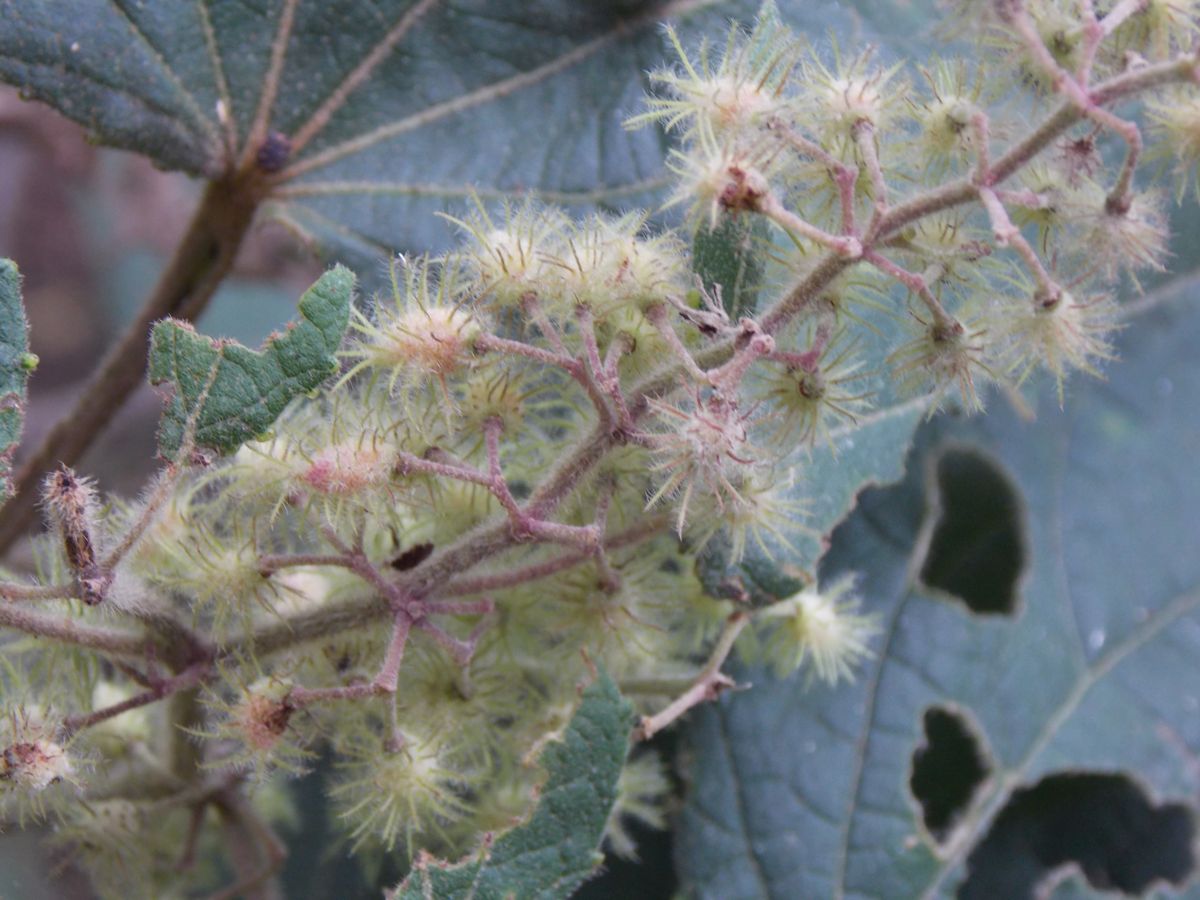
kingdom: Plantae
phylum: Tracheophyta
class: Magnoliopsida
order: Malvales
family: Malvaceae
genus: Triumfetta
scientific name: Triumfetta calderonii
